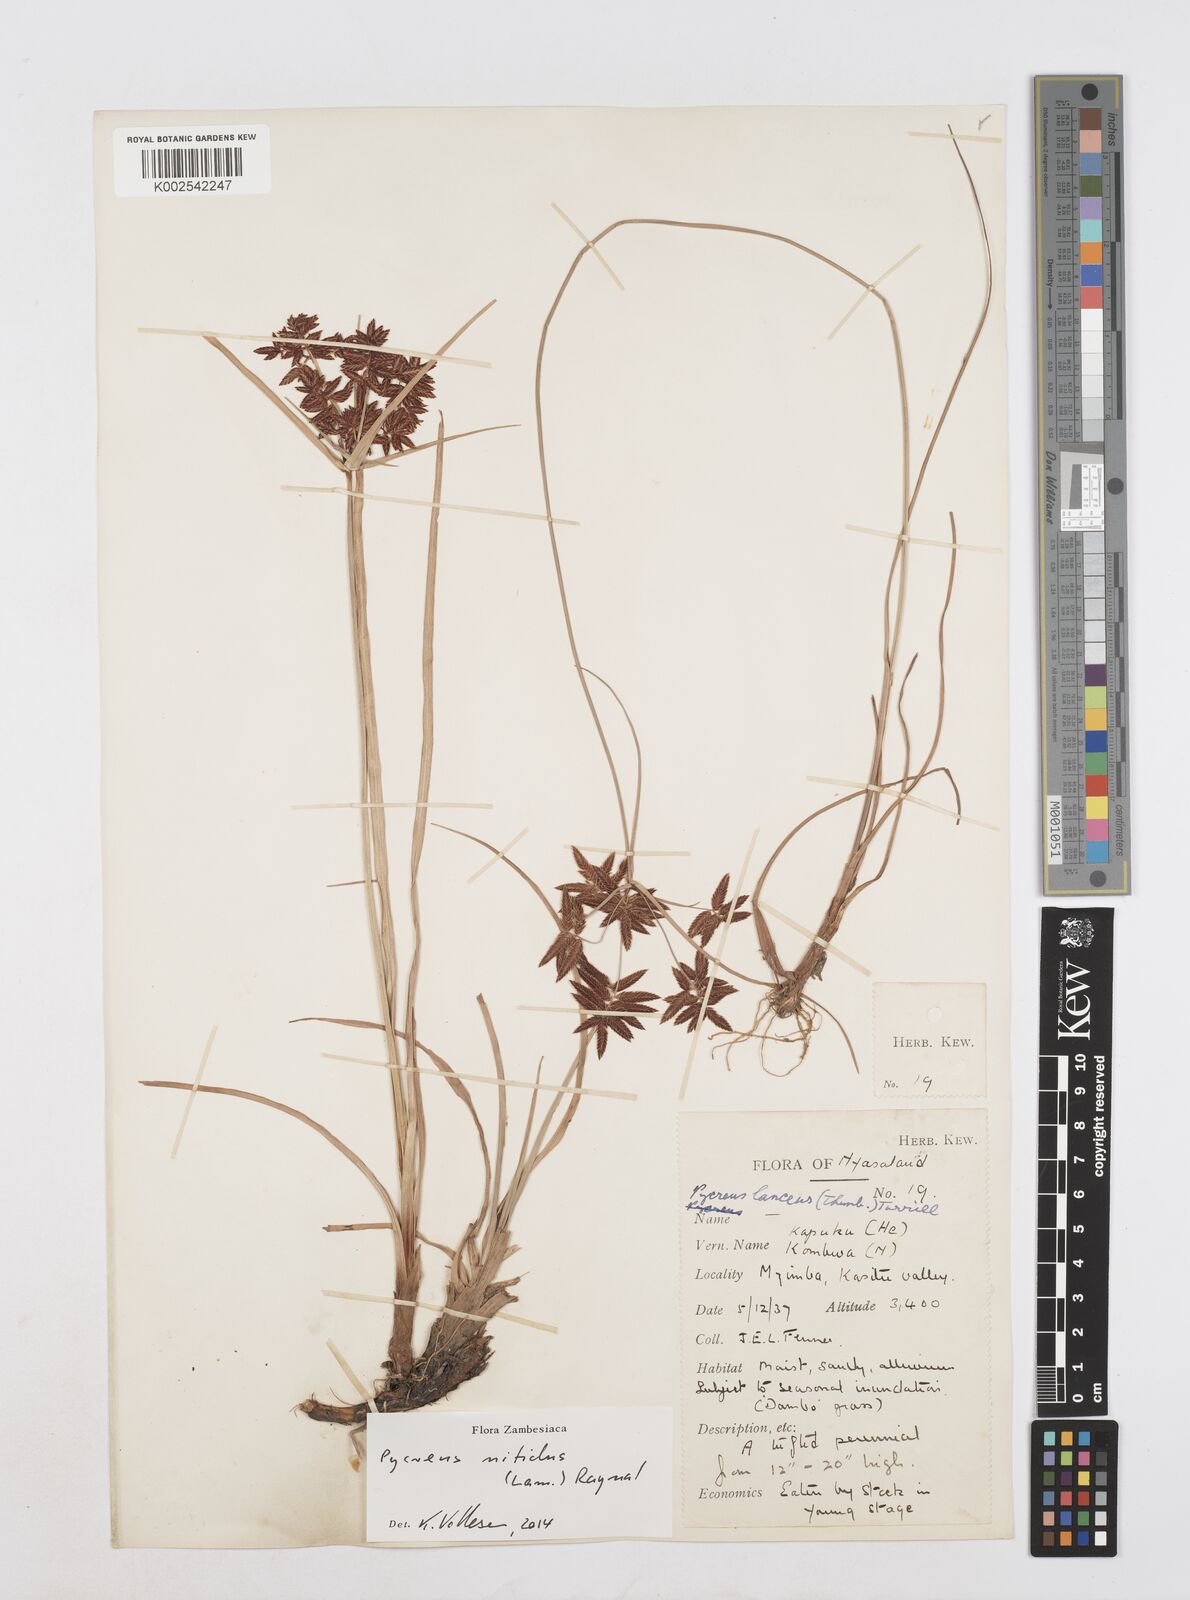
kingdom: Plantae
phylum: Tracheophyta
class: Liliopsida
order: Poales
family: Cyperaceae
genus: Cyperus
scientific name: Cyperus nitidus
